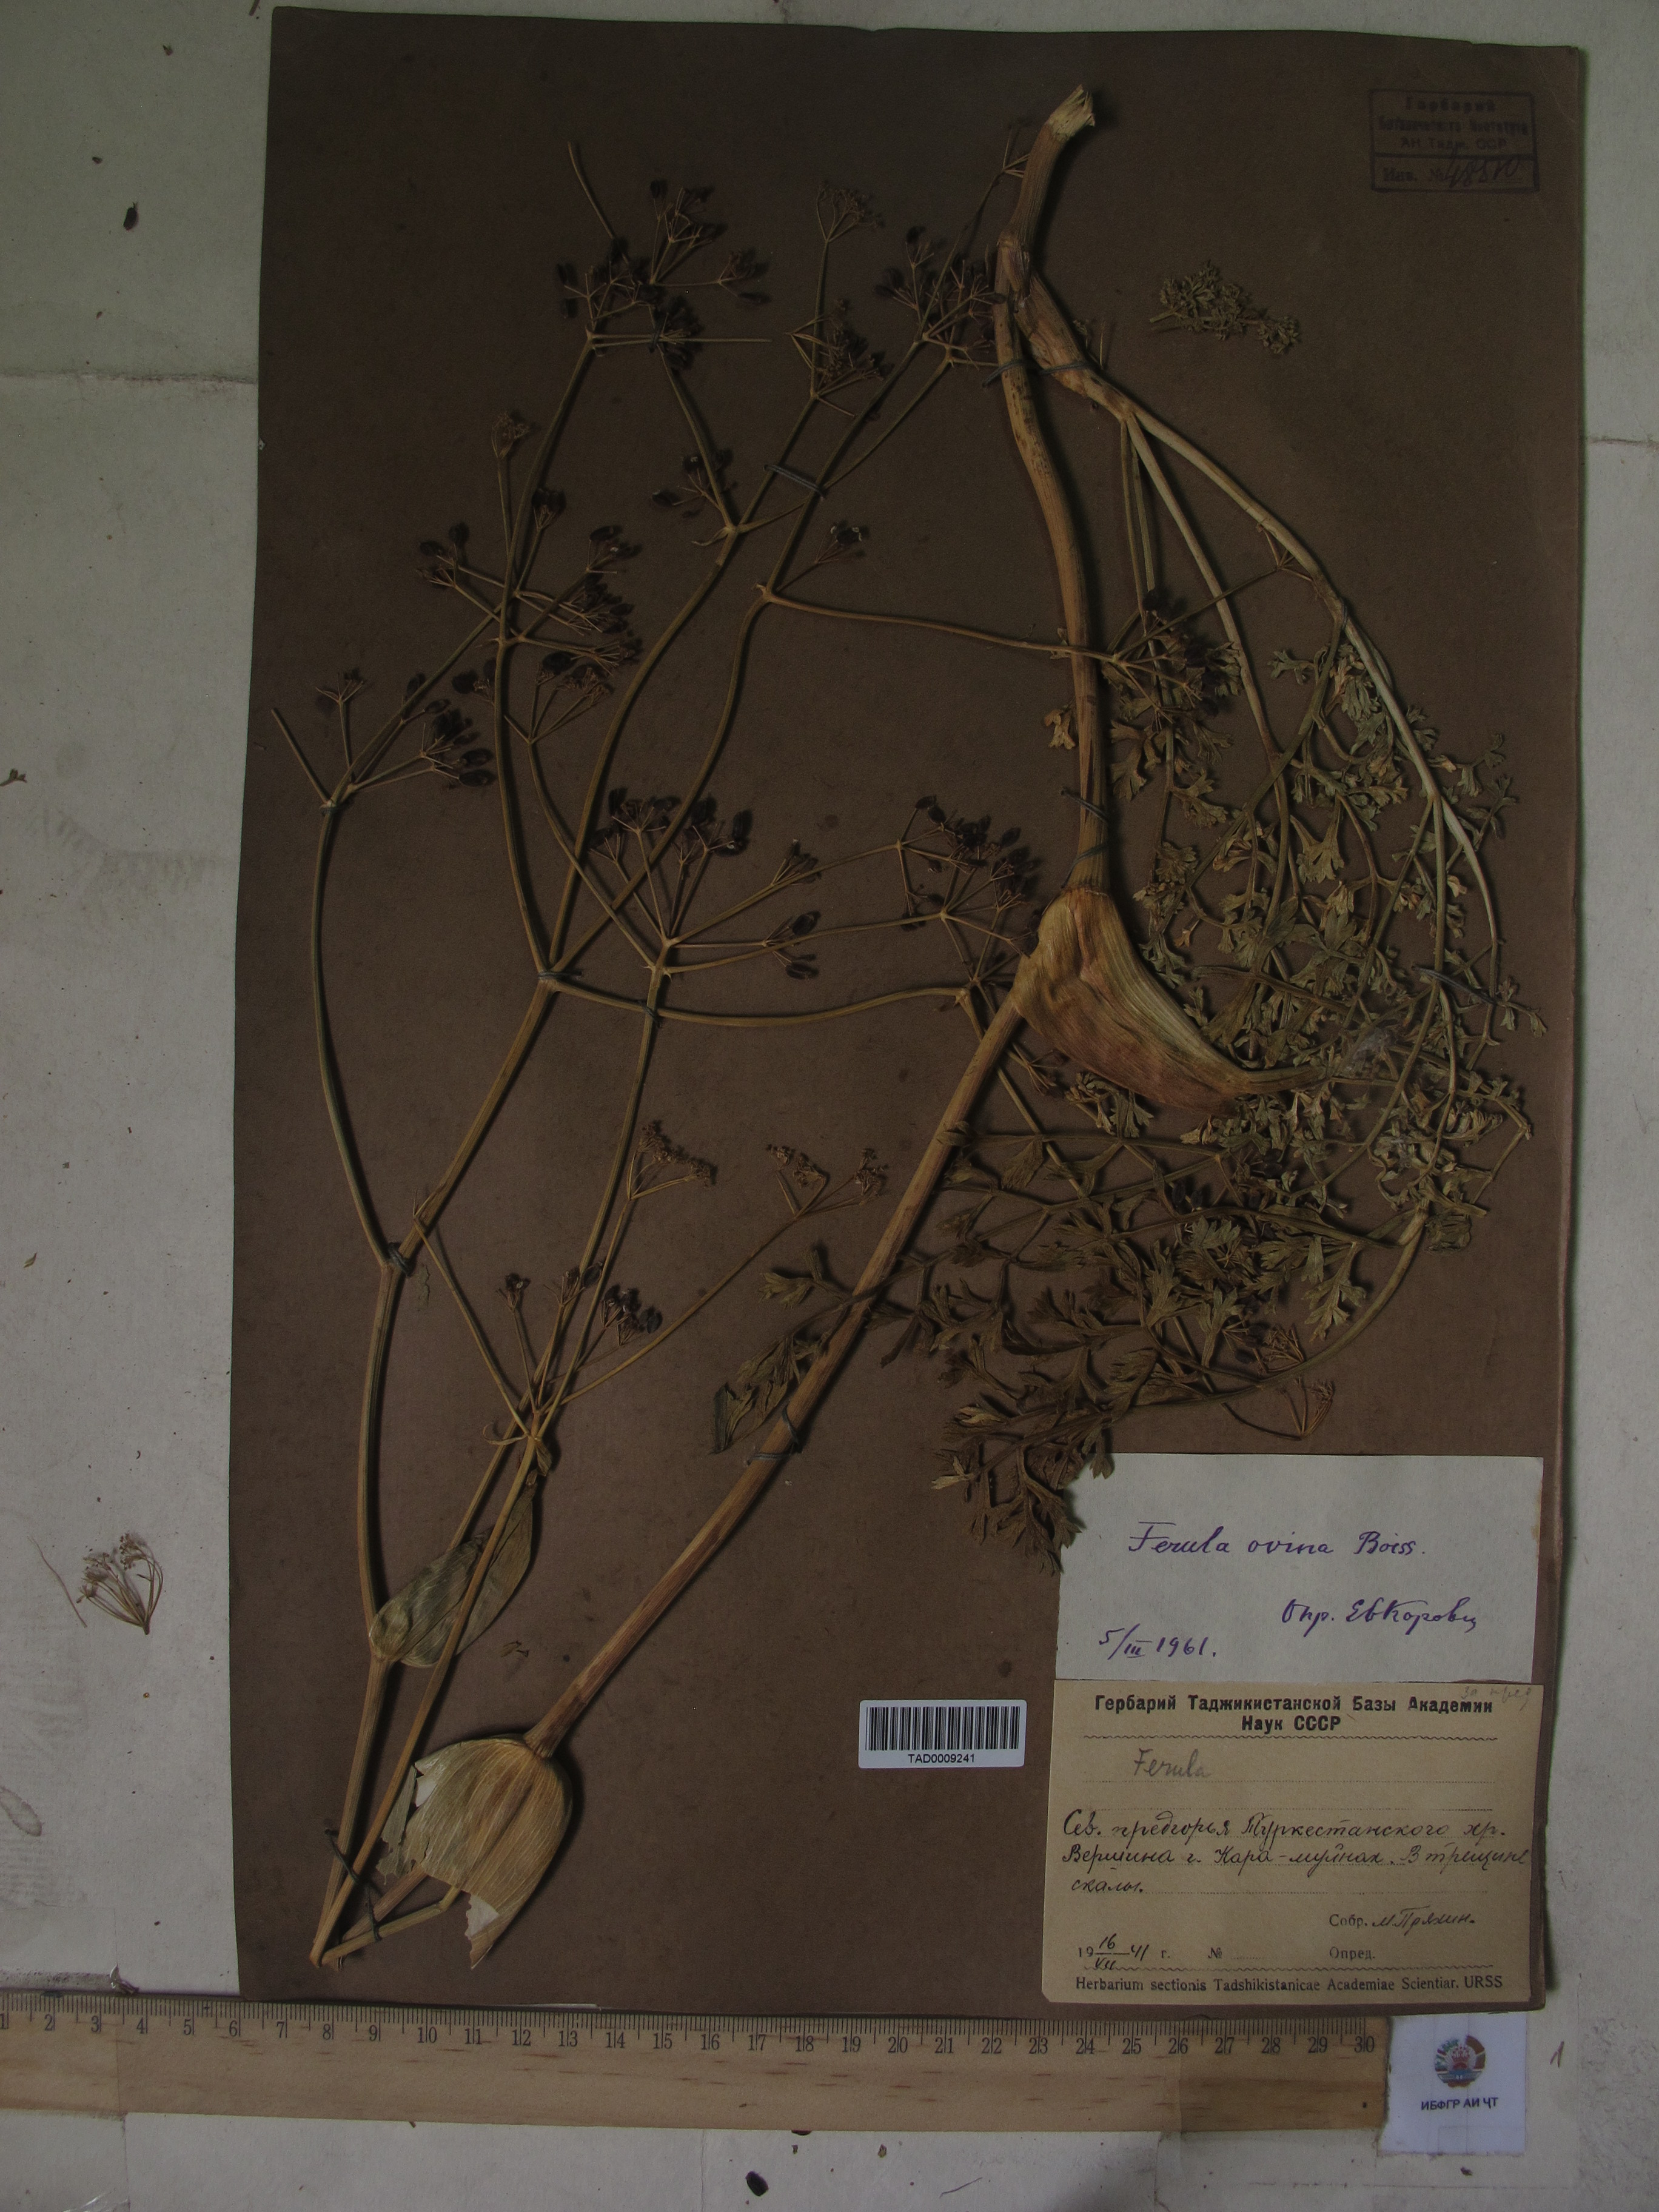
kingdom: Plantae
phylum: Tracheophyta
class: Magnoliopsida
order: Apiales
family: Apiaceae
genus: Ferula
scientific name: Ferula ovina
